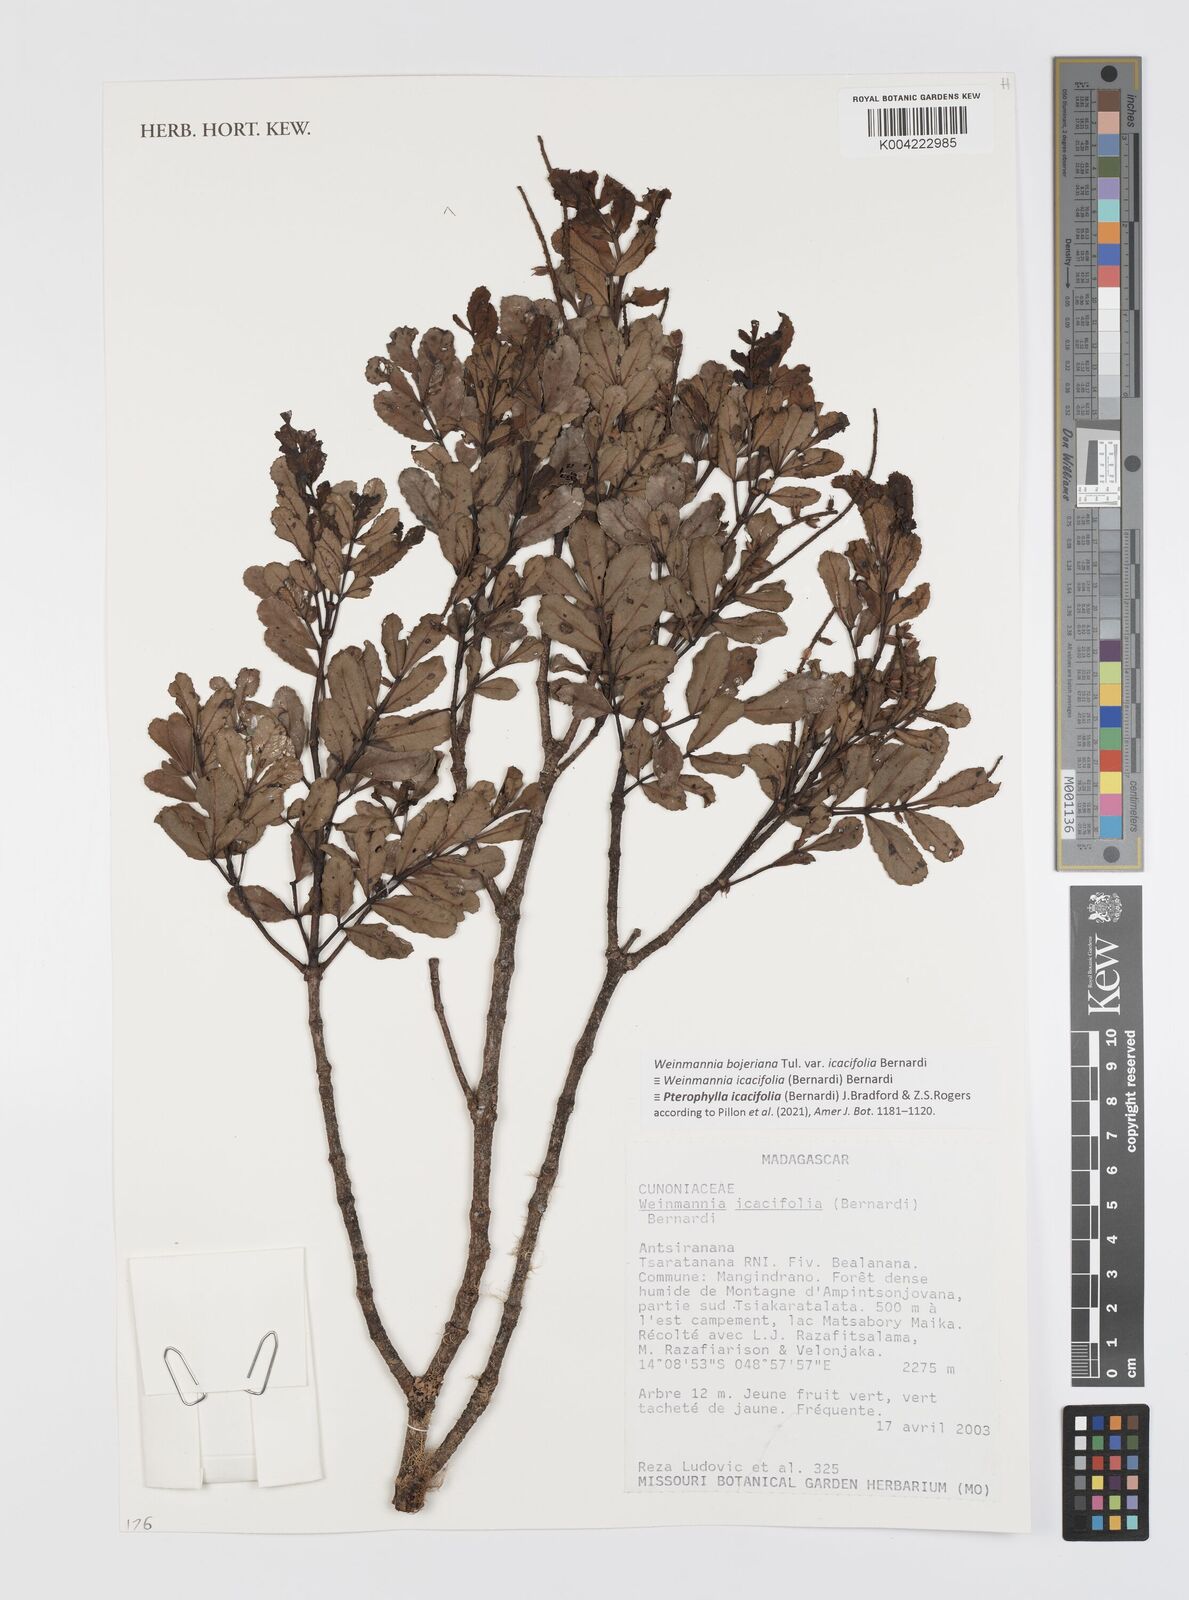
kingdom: Plantae
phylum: Tracheophyta
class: Magnoliopsida
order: Oxalidales
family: Cunoniaceae
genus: Pterophylla
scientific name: Pterophylla icacifolia
